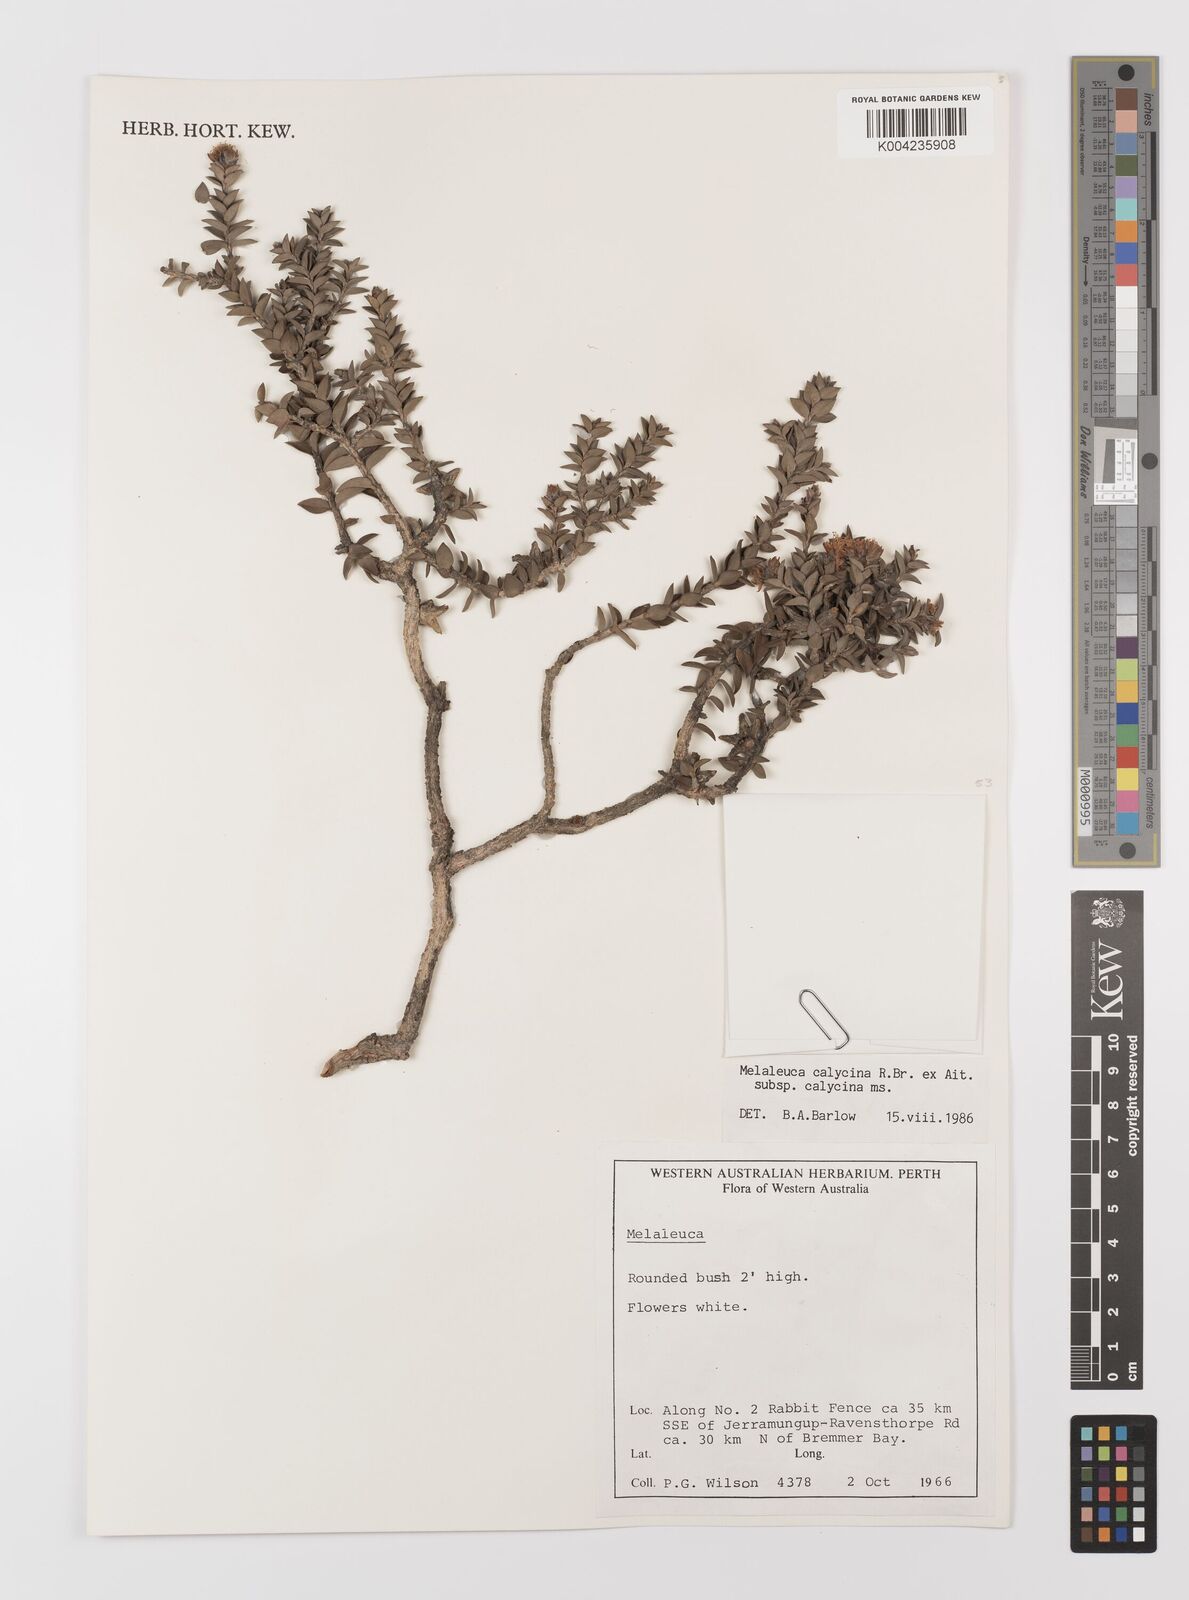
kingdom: Plantae
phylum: Tracheophyta
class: Magnoliopsida
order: Myrtales
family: Myrtaceae
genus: Melaleuca
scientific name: Melaleuca calycina
